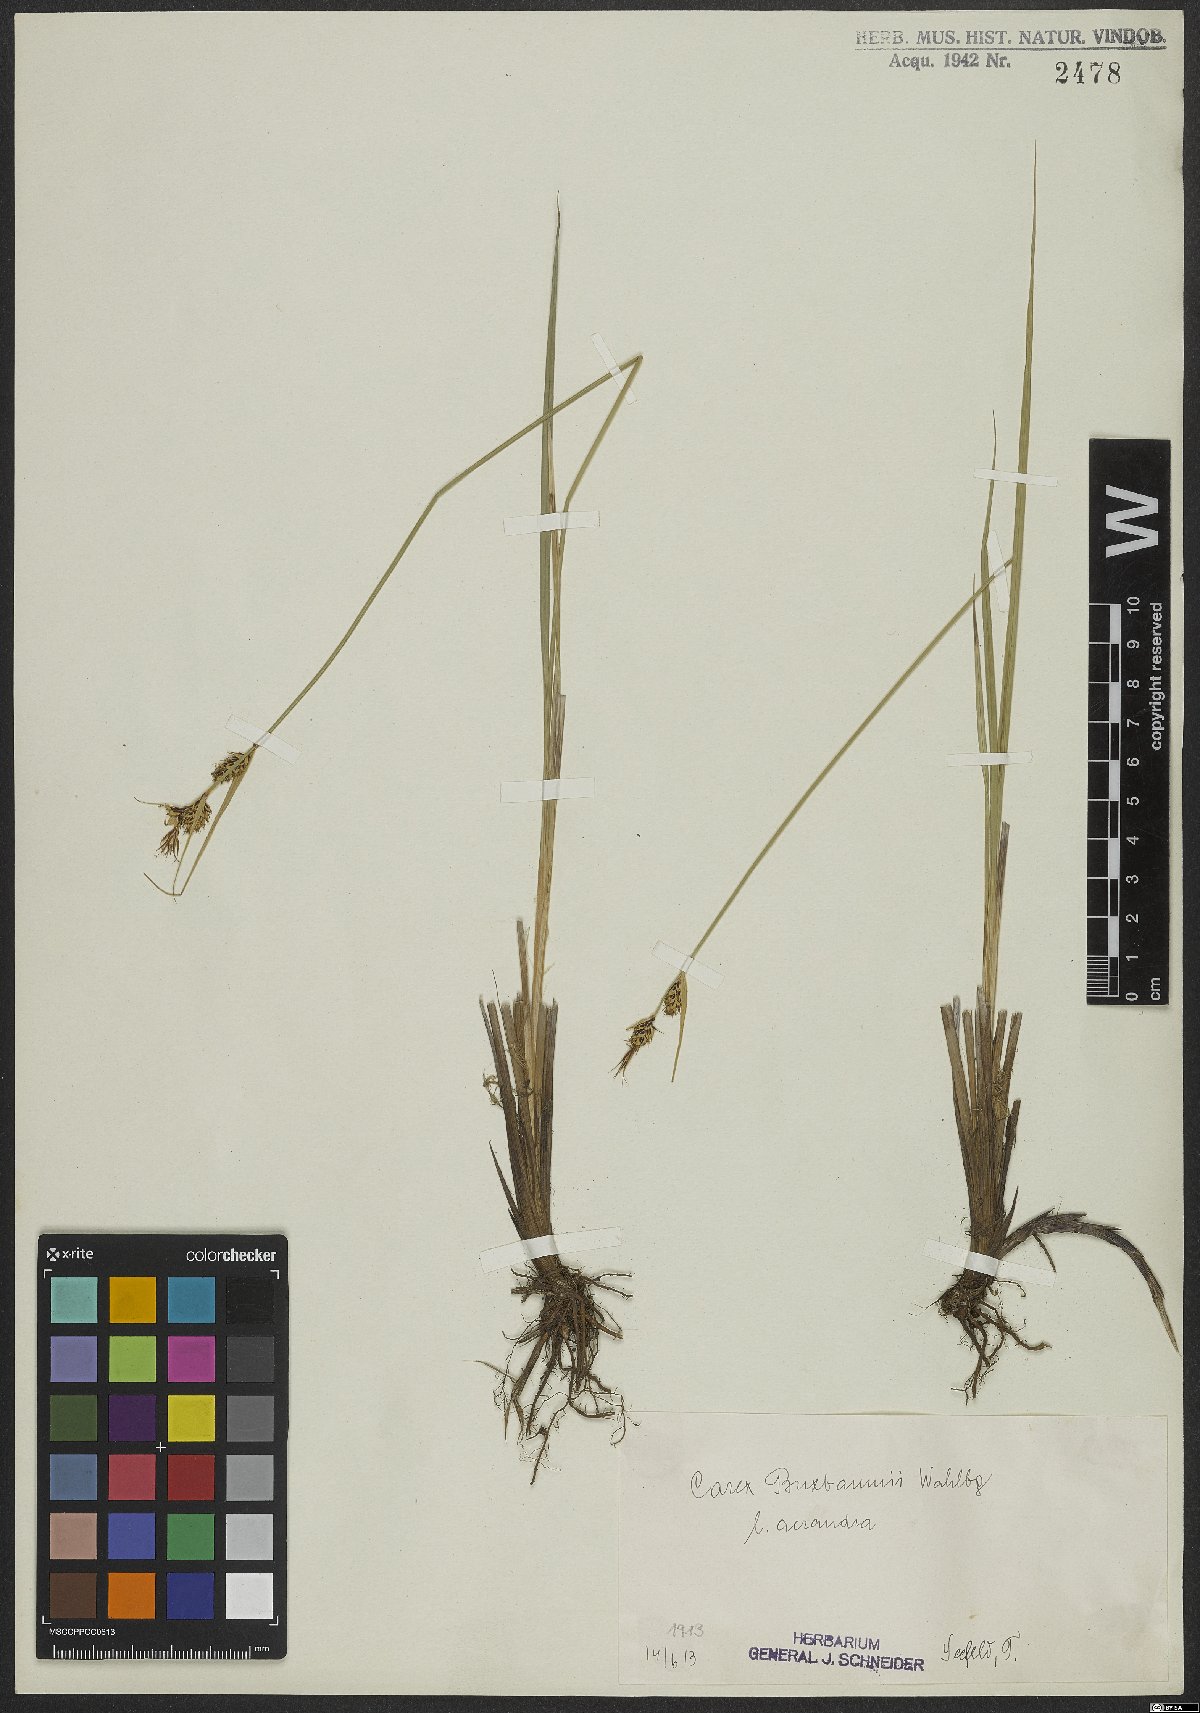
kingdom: Plantae
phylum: Tracheophyta
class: Liliopsida
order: Poales
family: Cyperaceae
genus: Carex
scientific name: Carex buxbaumii
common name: Club sedge
